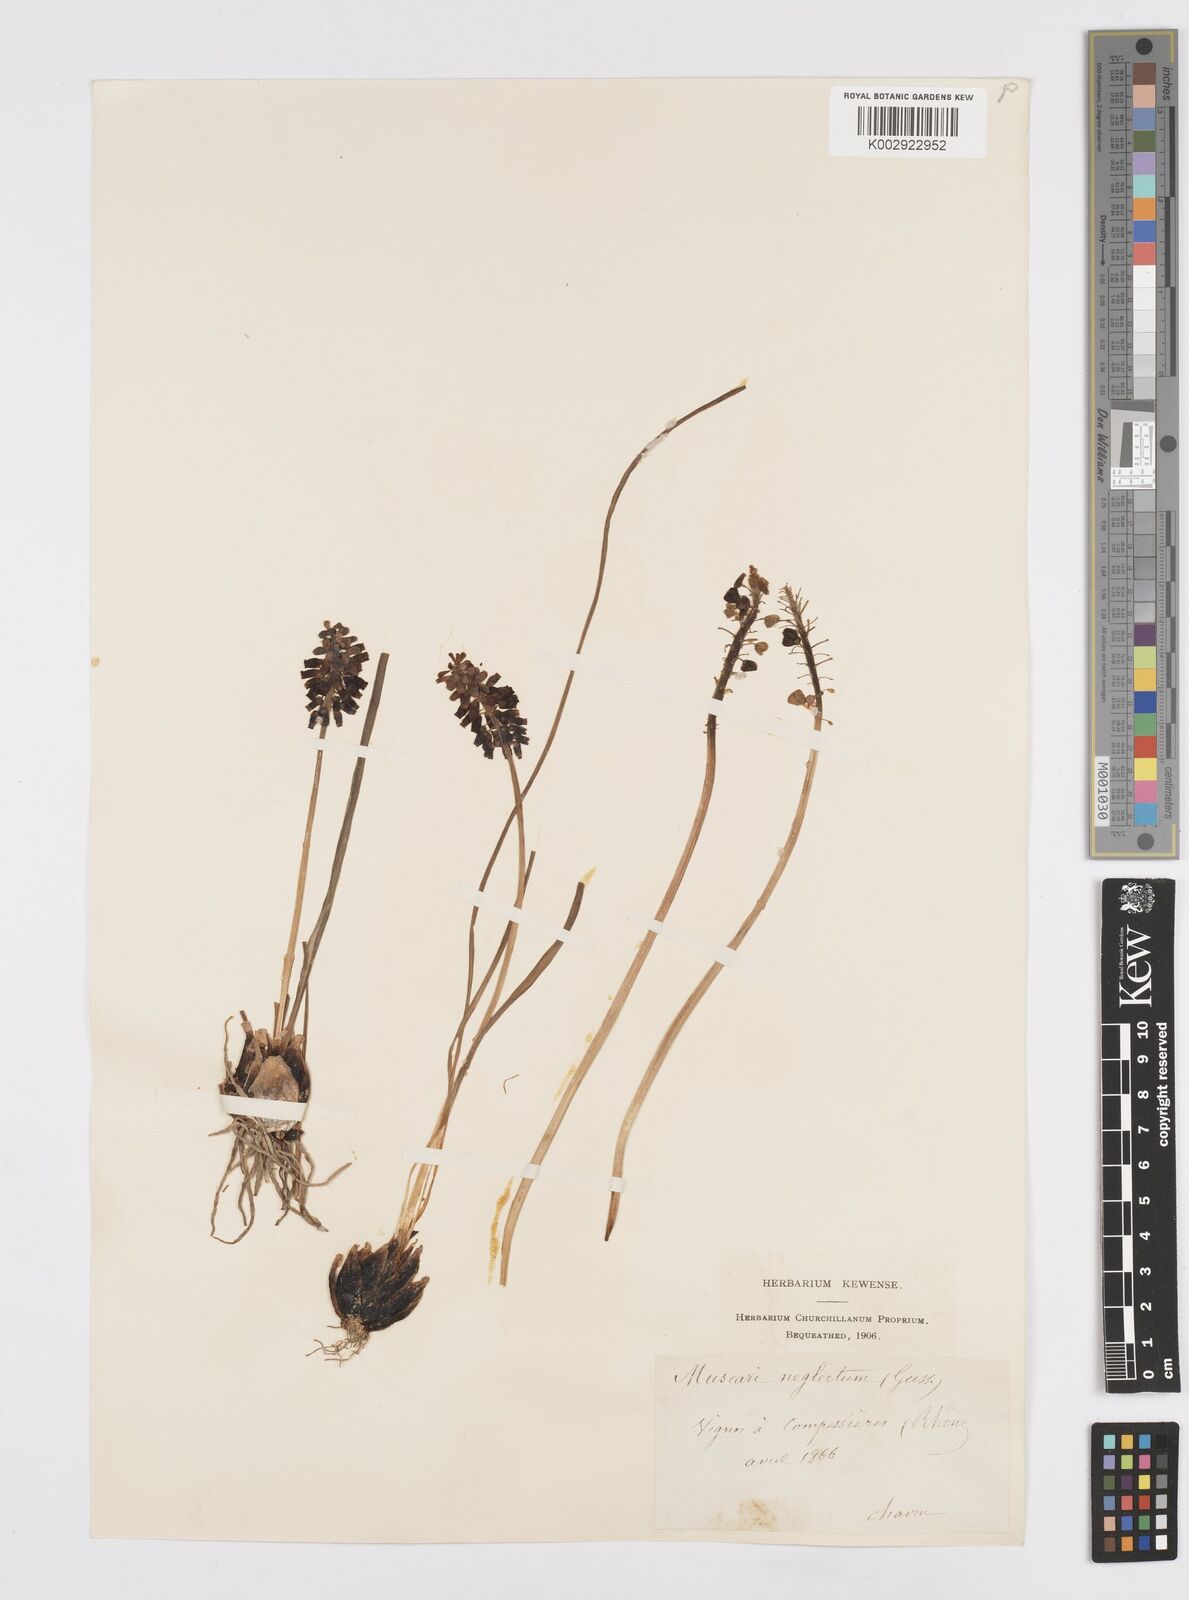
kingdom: Plantae
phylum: Tracheophyta
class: Liliopsida
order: Asparagales
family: Asparagaceae
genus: Muscari
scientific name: Muscari neglectum
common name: Grape-hyacinth
